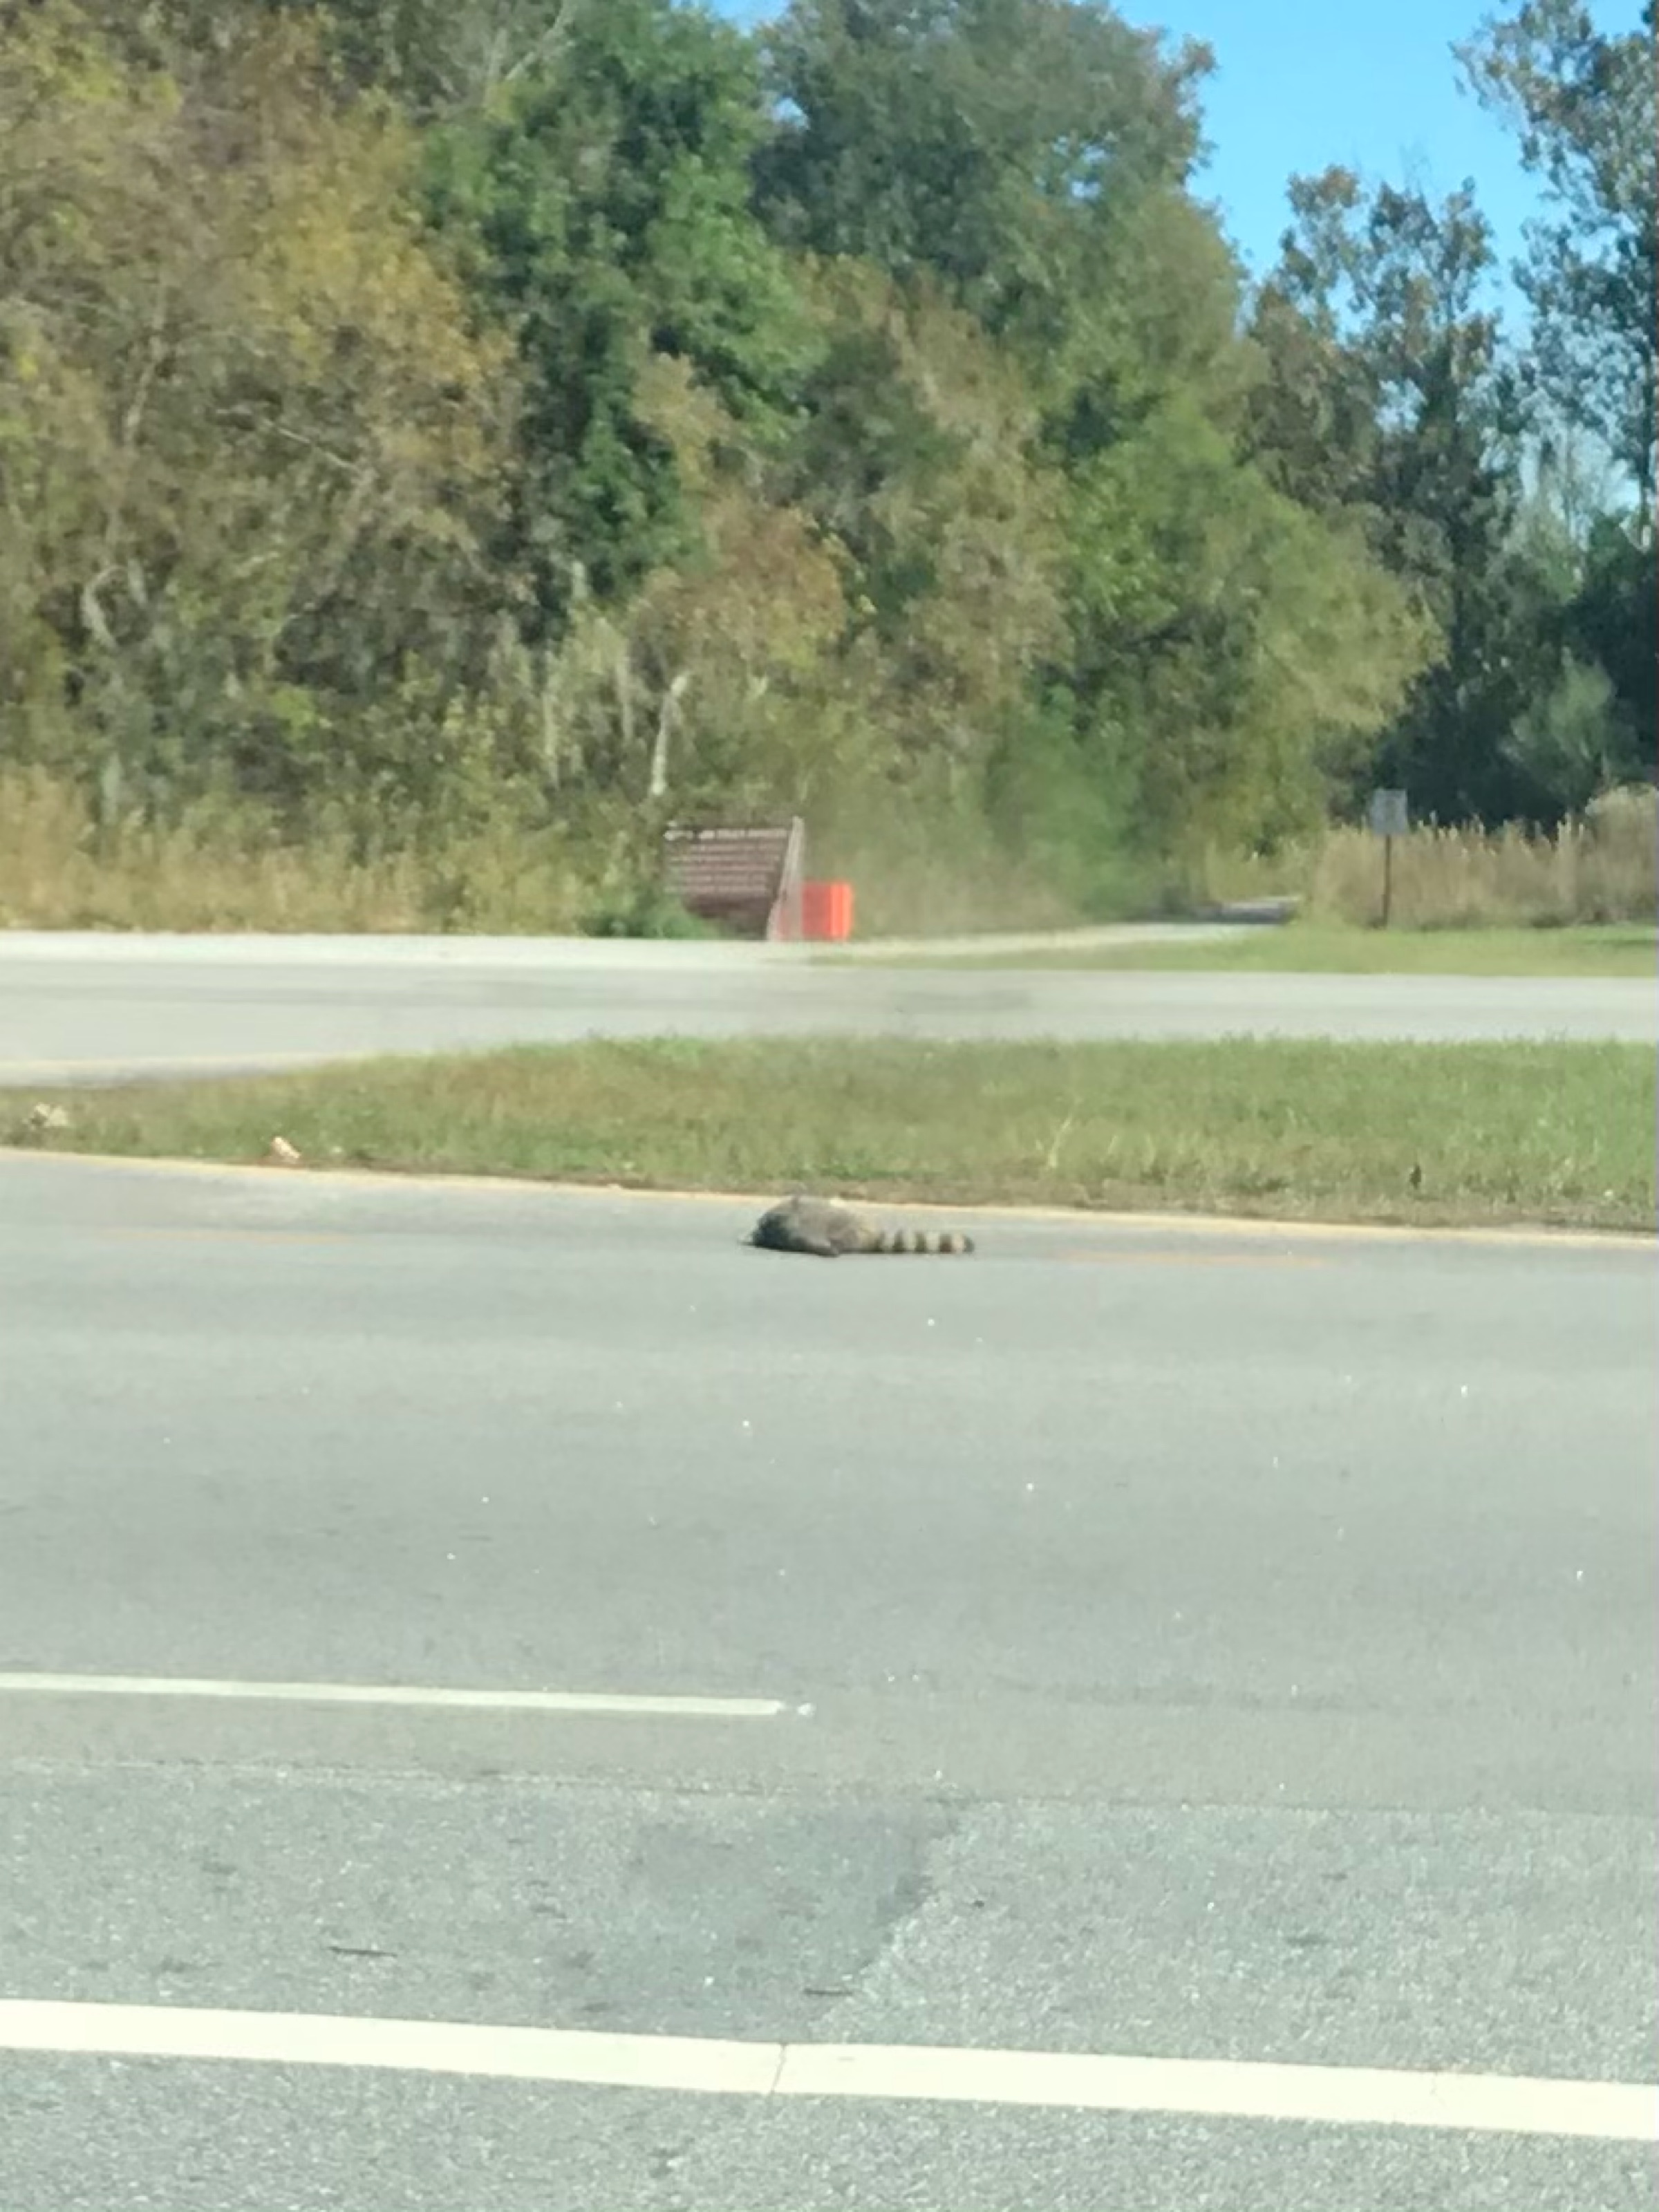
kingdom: Animalia
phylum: Chordata
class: Mammalia
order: Carnivora
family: Procyonidae
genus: Procyon
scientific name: Procyon lotor
